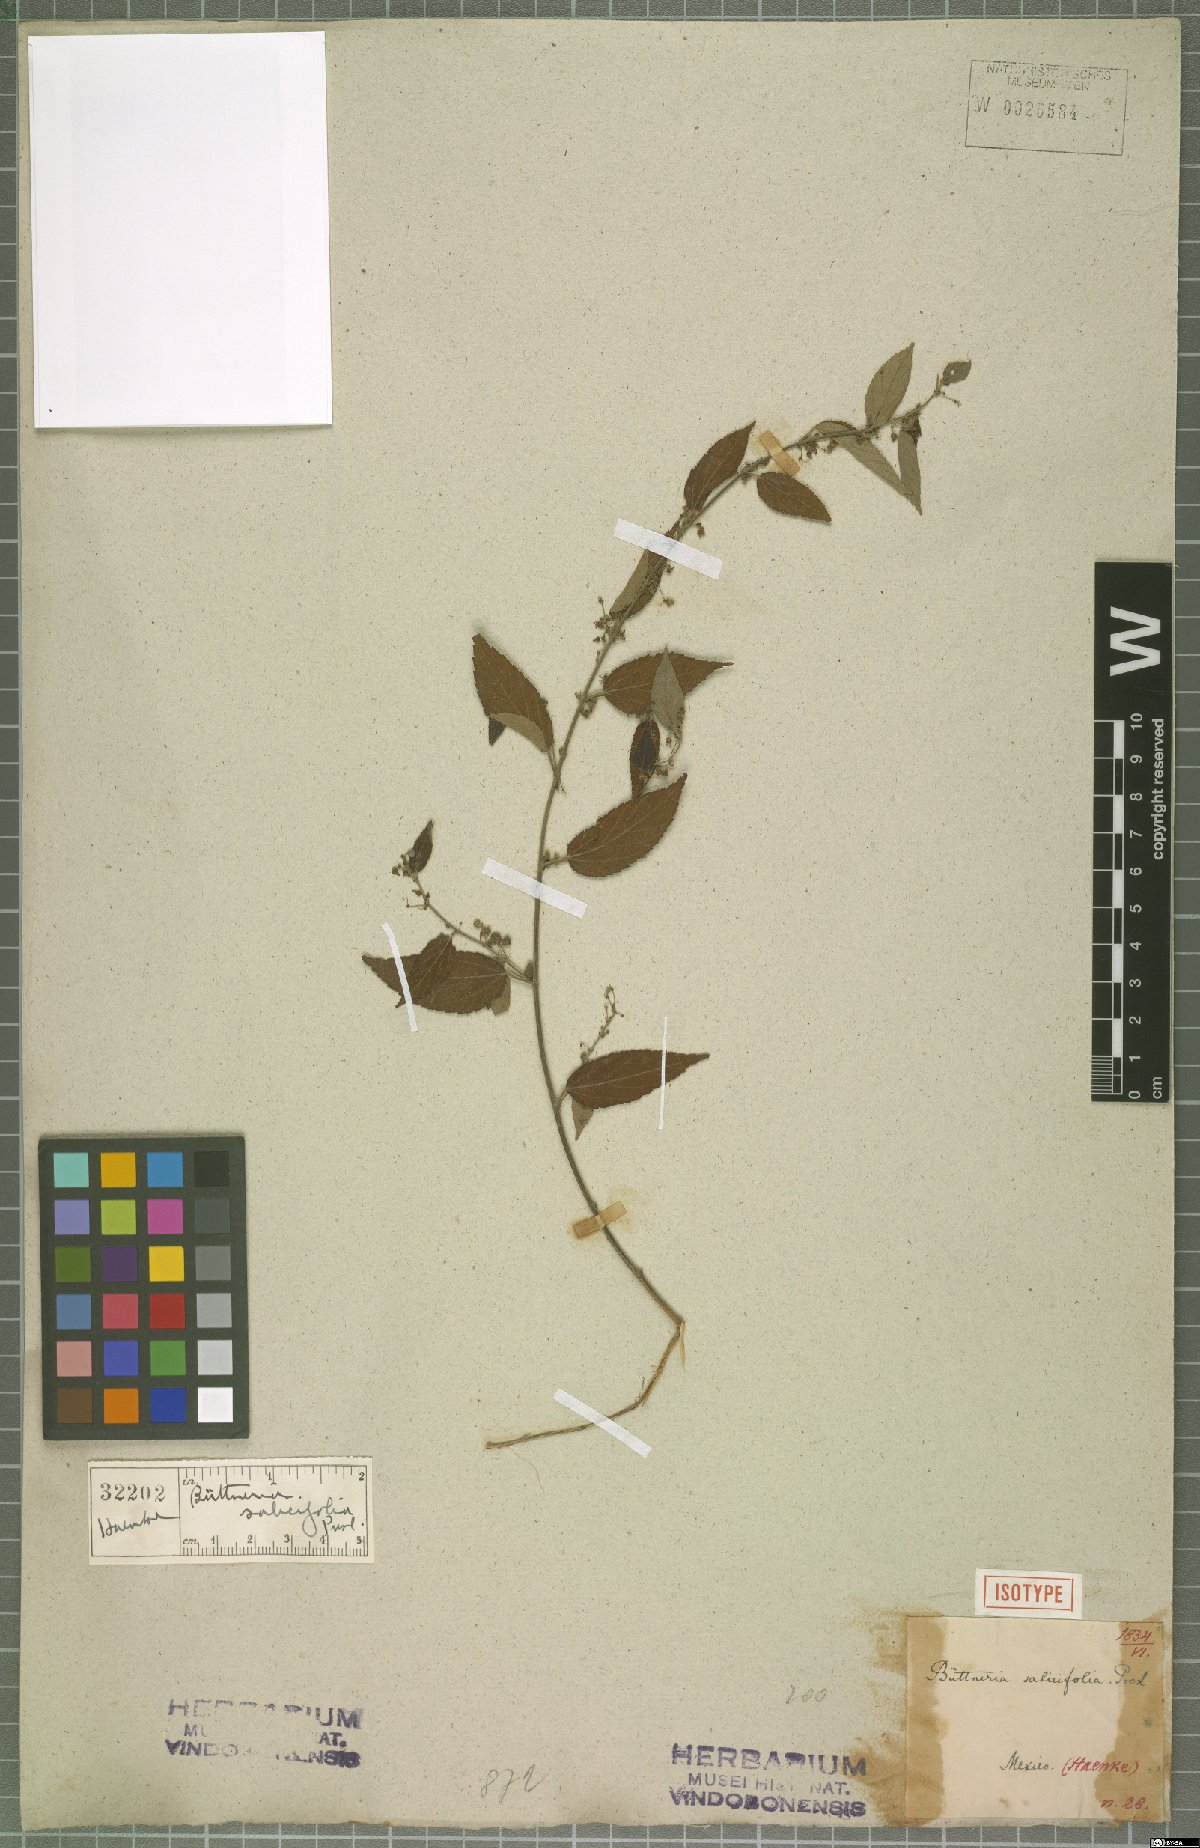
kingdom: Plantae
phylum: Tracheophyta
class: Magnoliopsida
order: Malvales
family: Malvaceae
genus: Byttneria
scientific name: Byttneria corchorifolia
